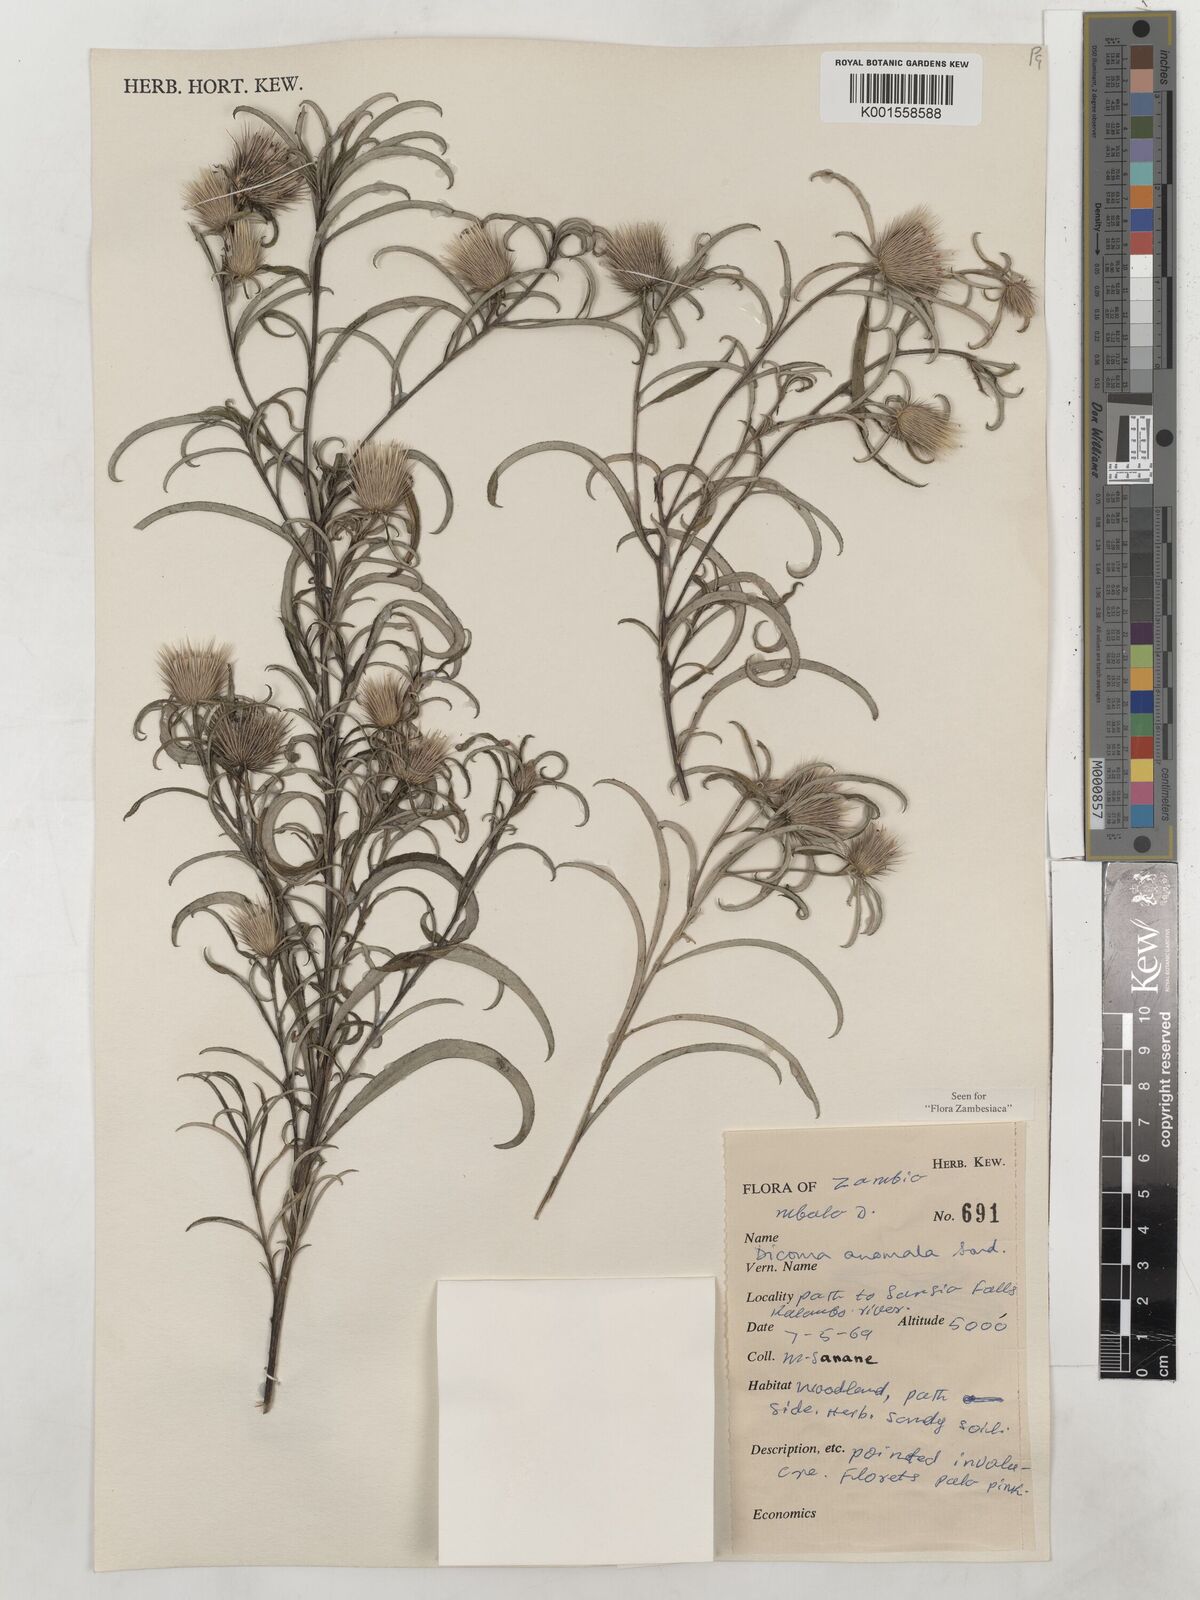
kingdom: Plantae
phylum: Tracheophyta
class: Magnoliopsida
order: Asterales
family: Asteraceae
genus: Dicoma
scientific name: Dicoma anomala
